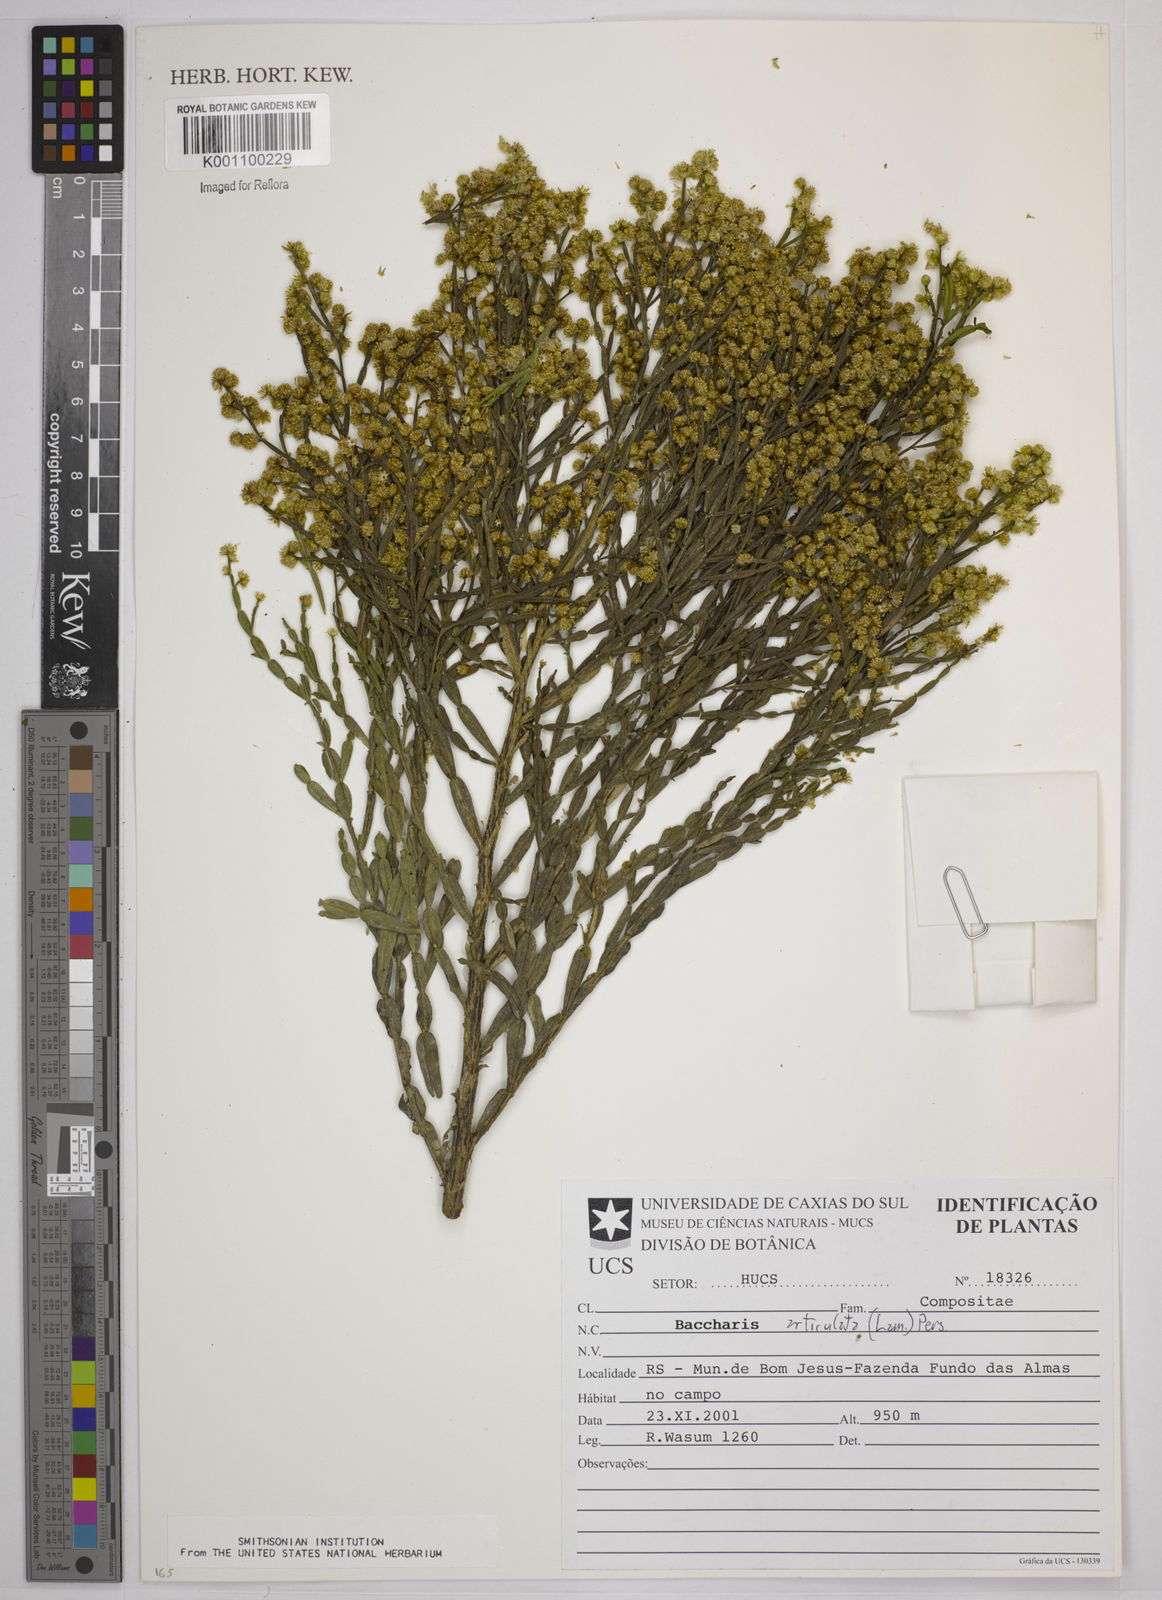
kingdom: Plantae
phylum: Tracheophyta
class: Magnoliopsida
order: Asterales
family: Asteraceae
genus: Baccharis
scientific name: Baccharis
